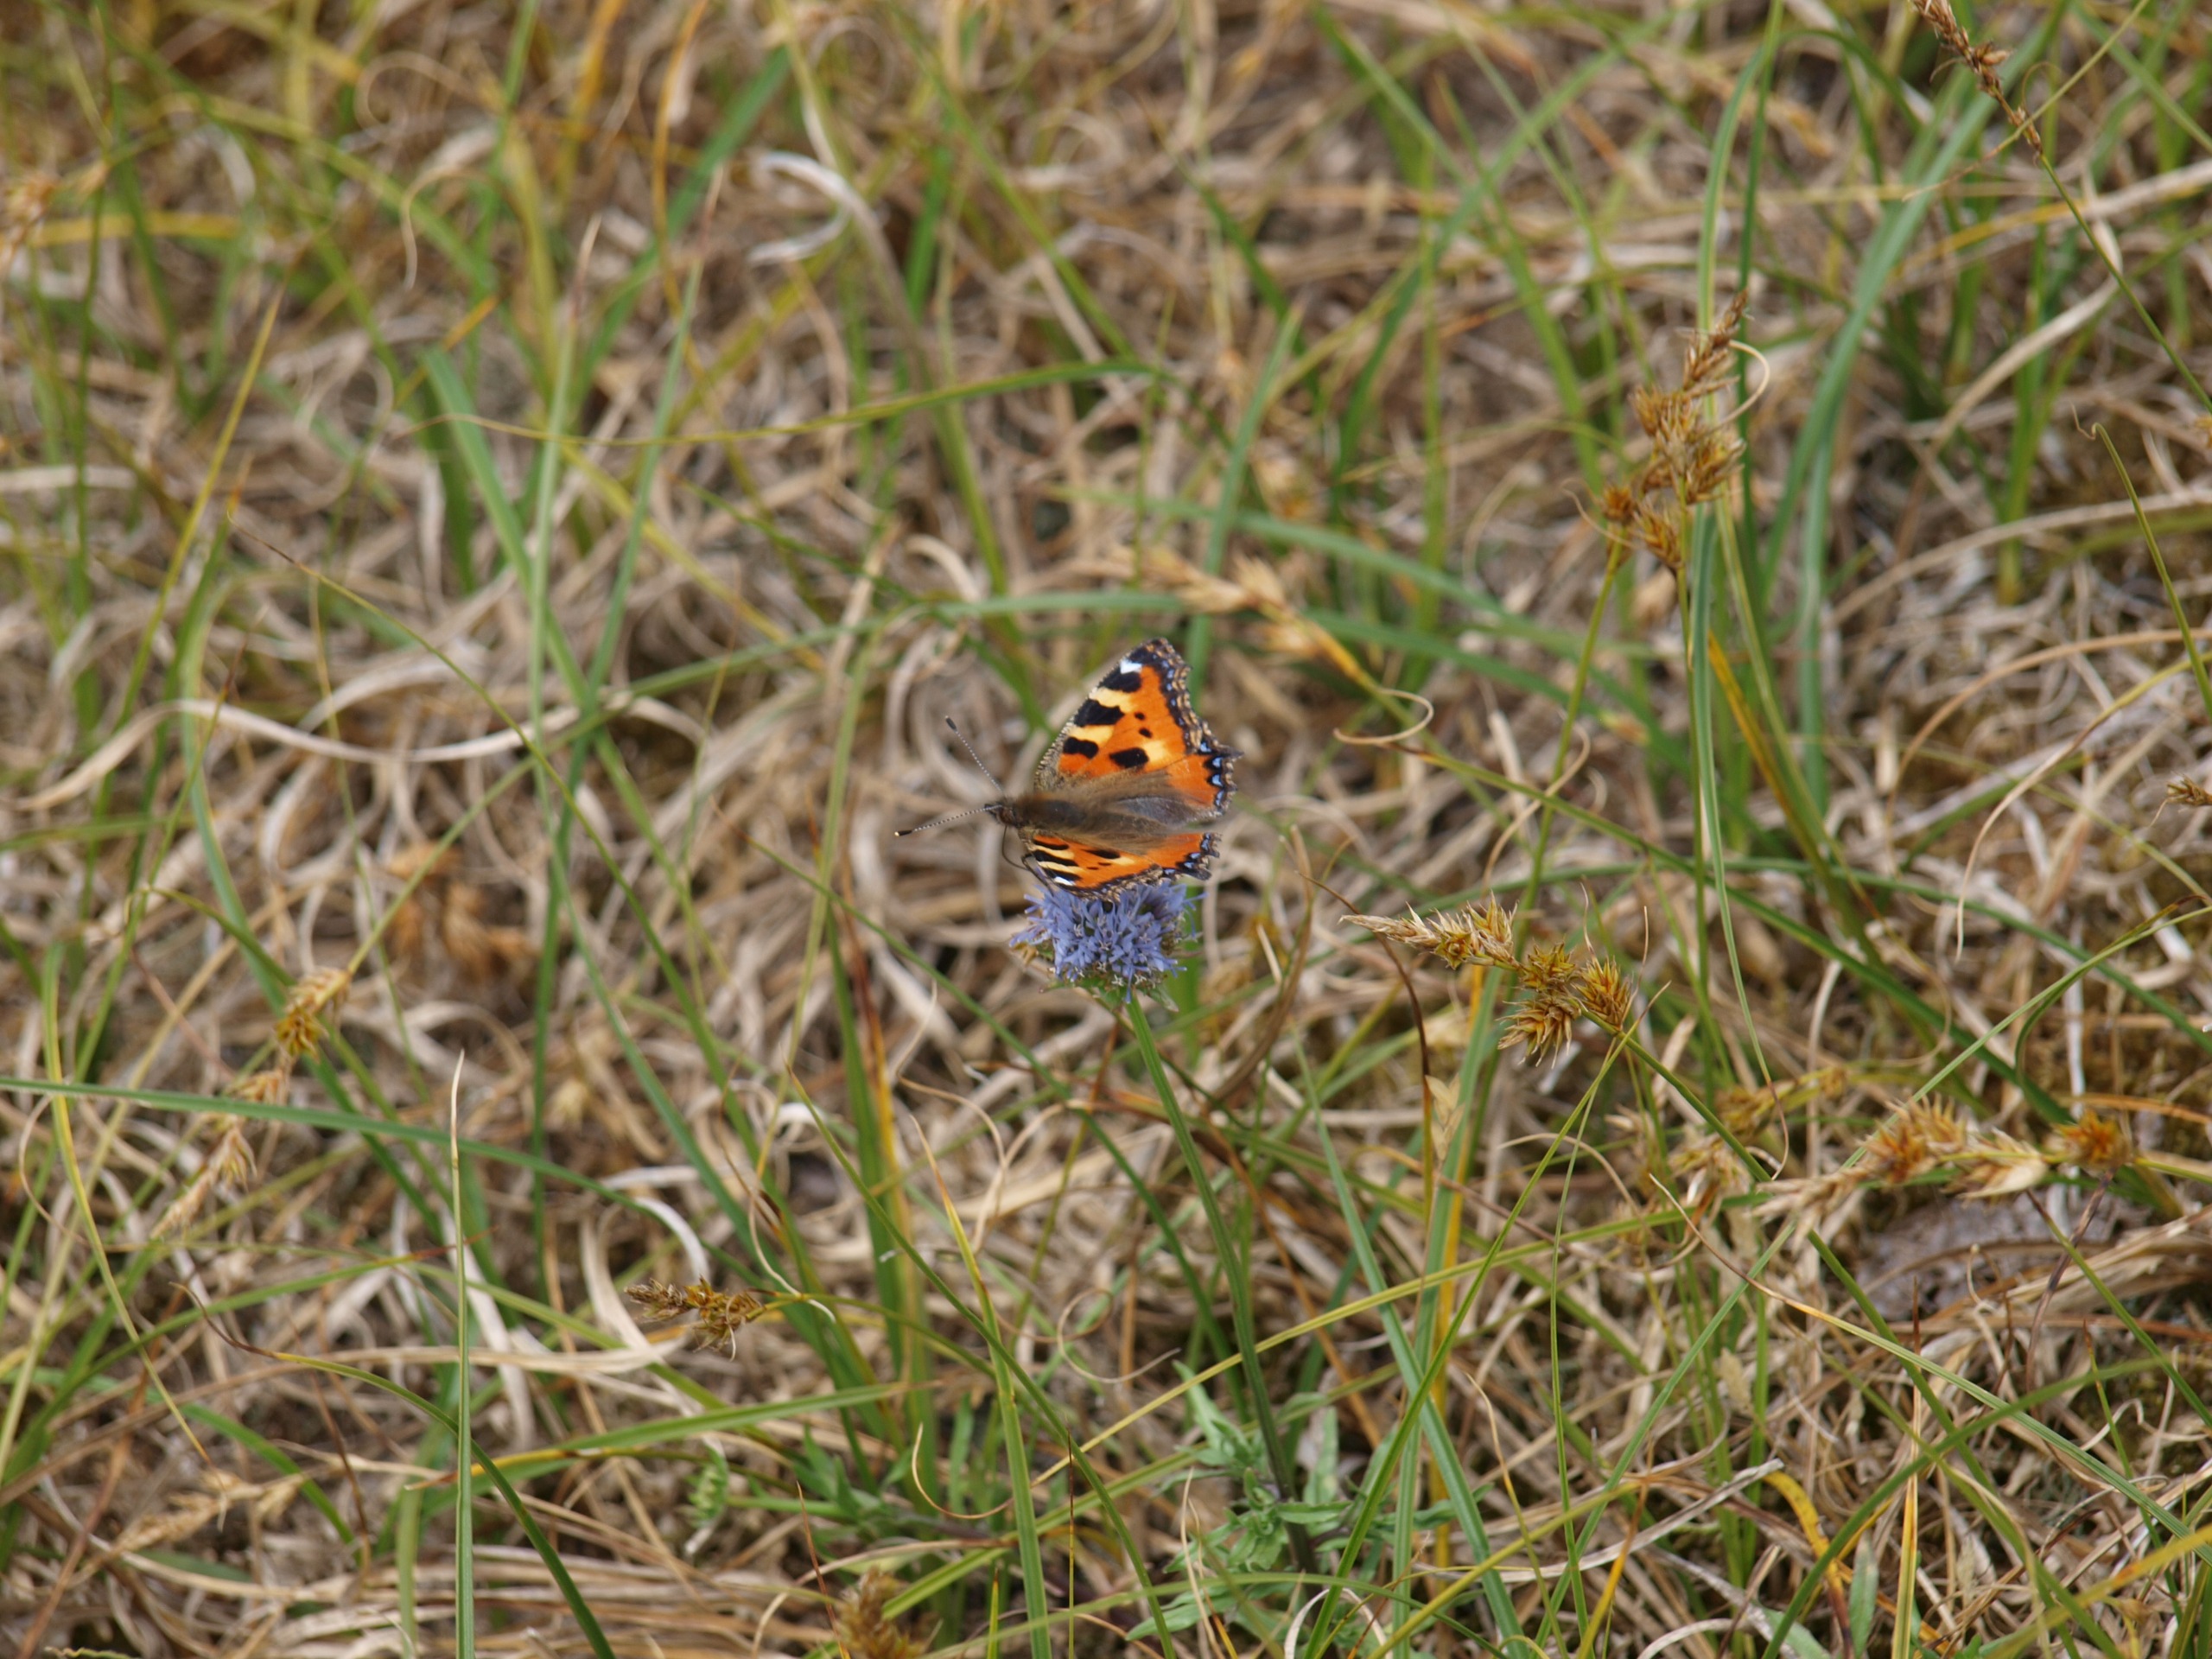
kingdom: Animalia
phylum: Arthropoda
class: Insecta
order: Lepidoptera
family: Nymphalidae
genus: Aglais
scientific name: Aglais urticae
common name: Nældens takvinge
